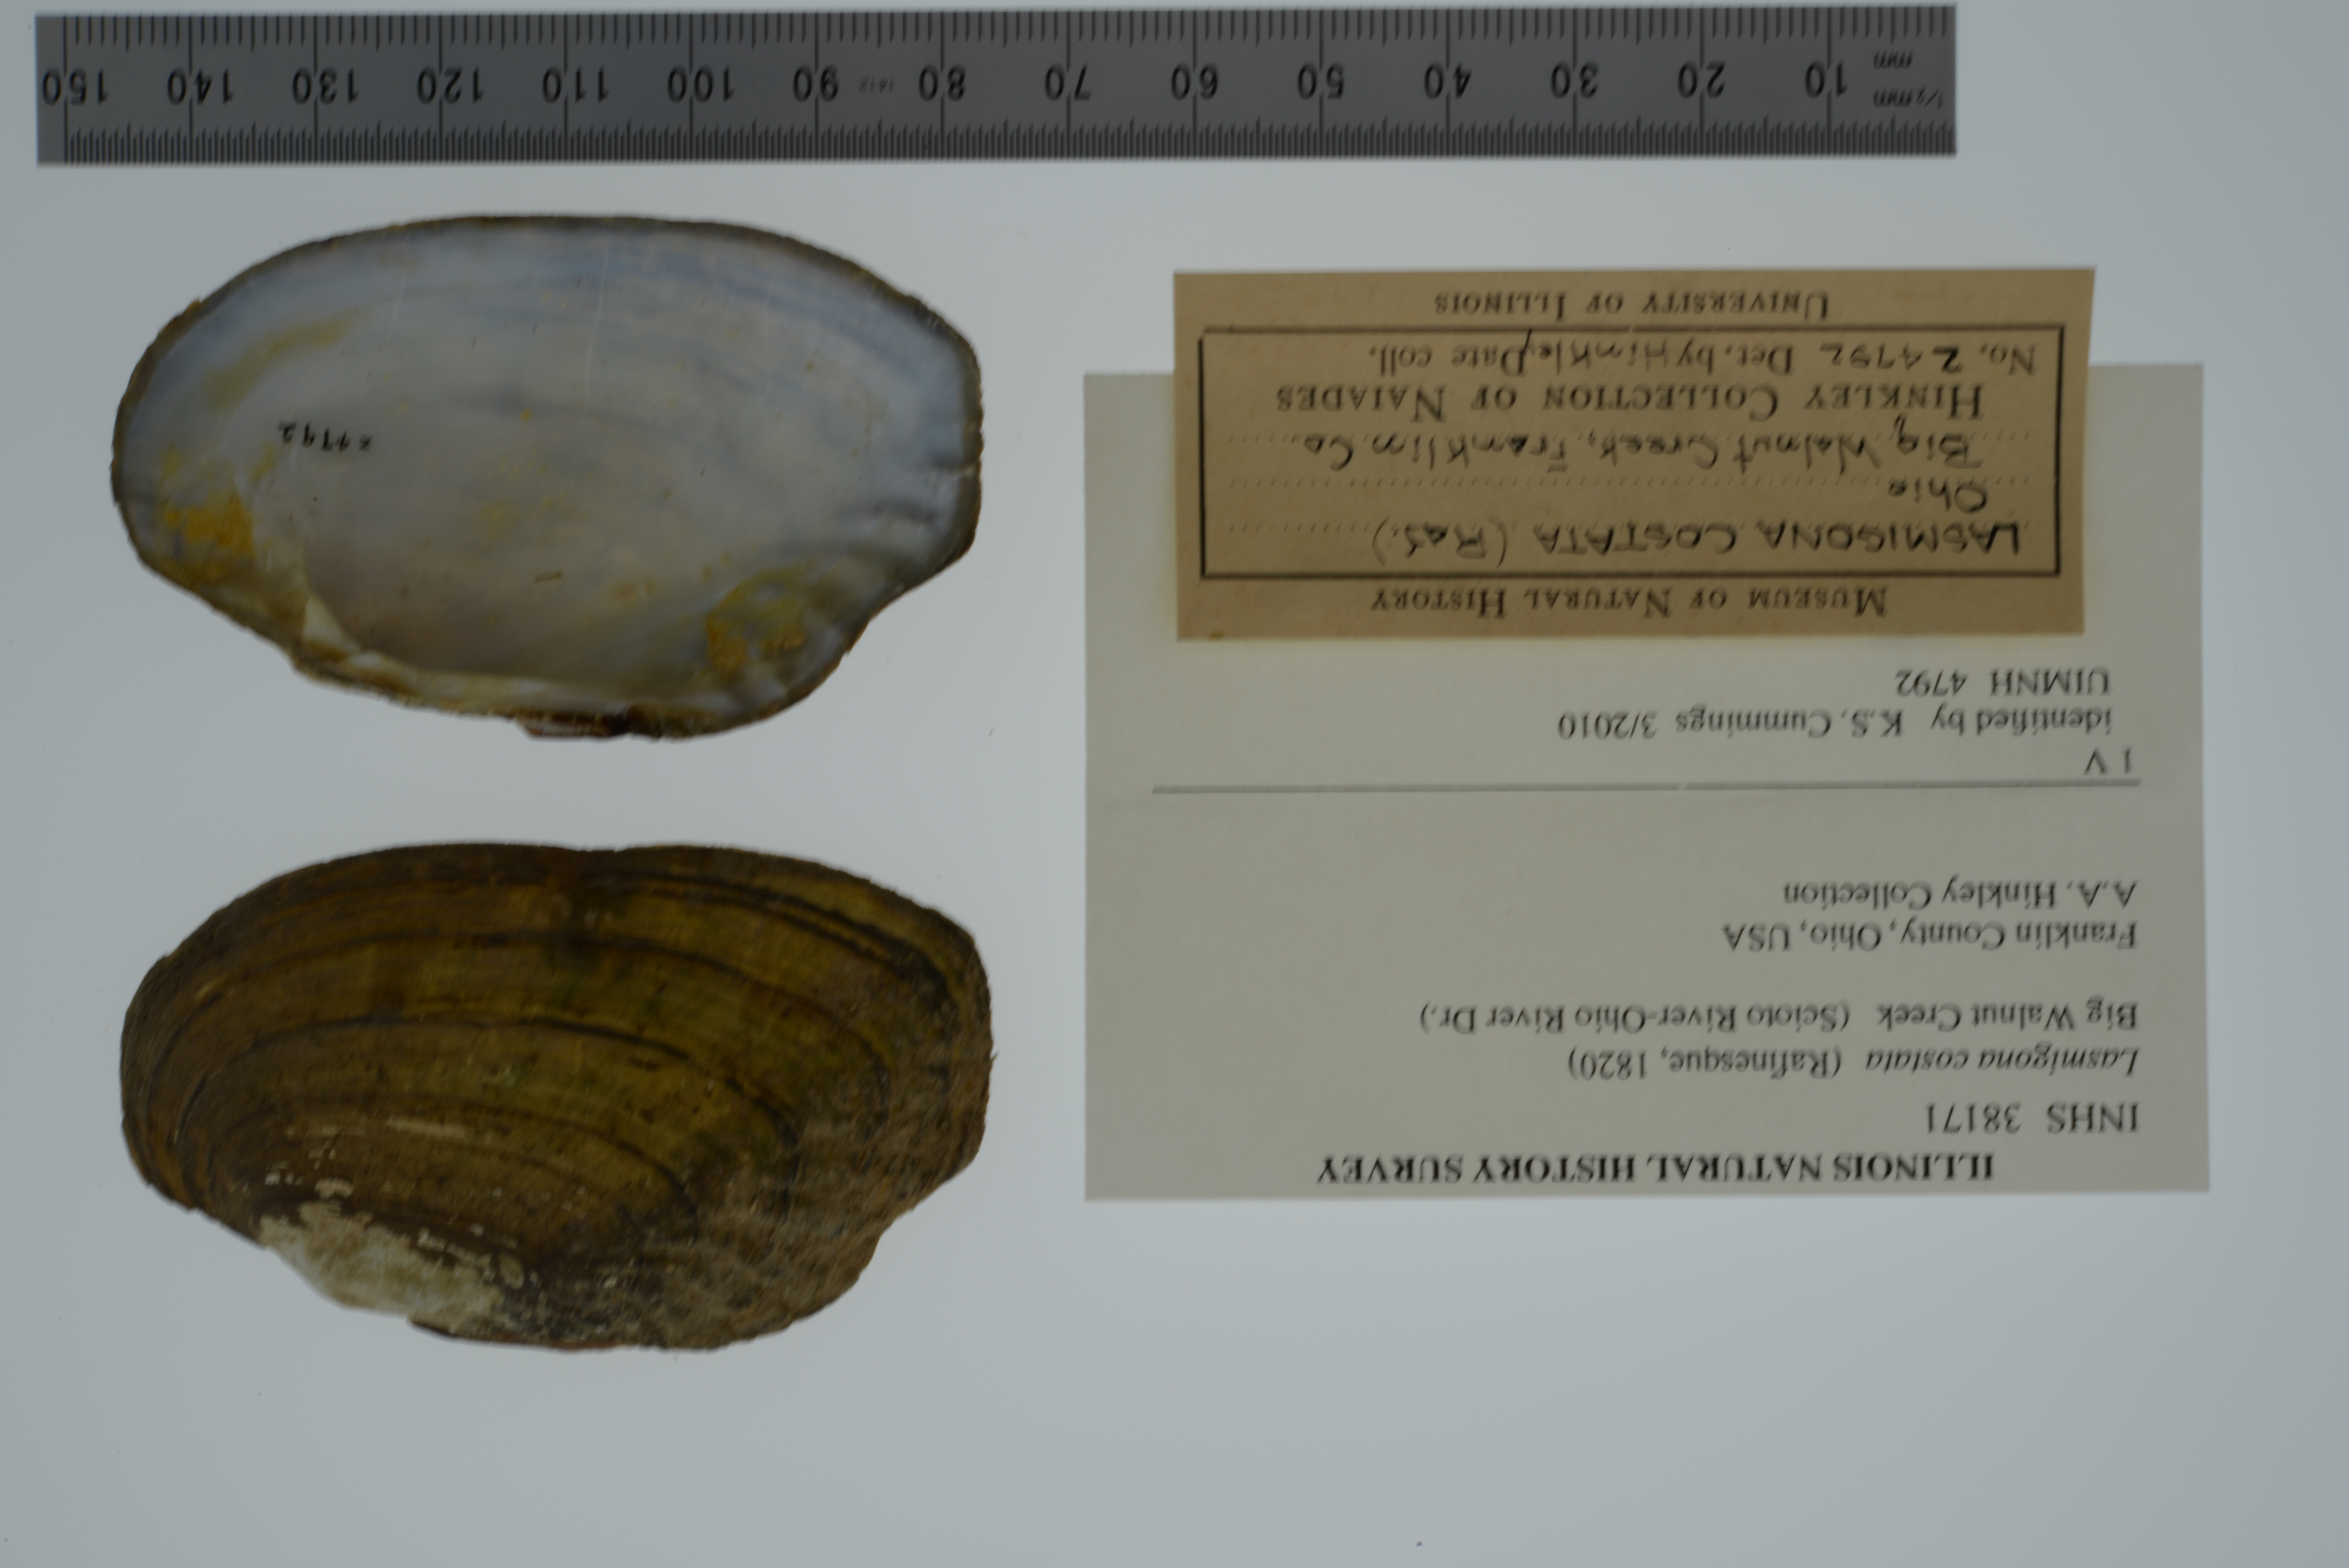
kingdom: Animalia
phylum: Mollusca
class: Bivalvia
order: Unionida
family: Unionidae
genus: Lasmigona
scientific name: Lasmigona costata
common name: Flutedshell
